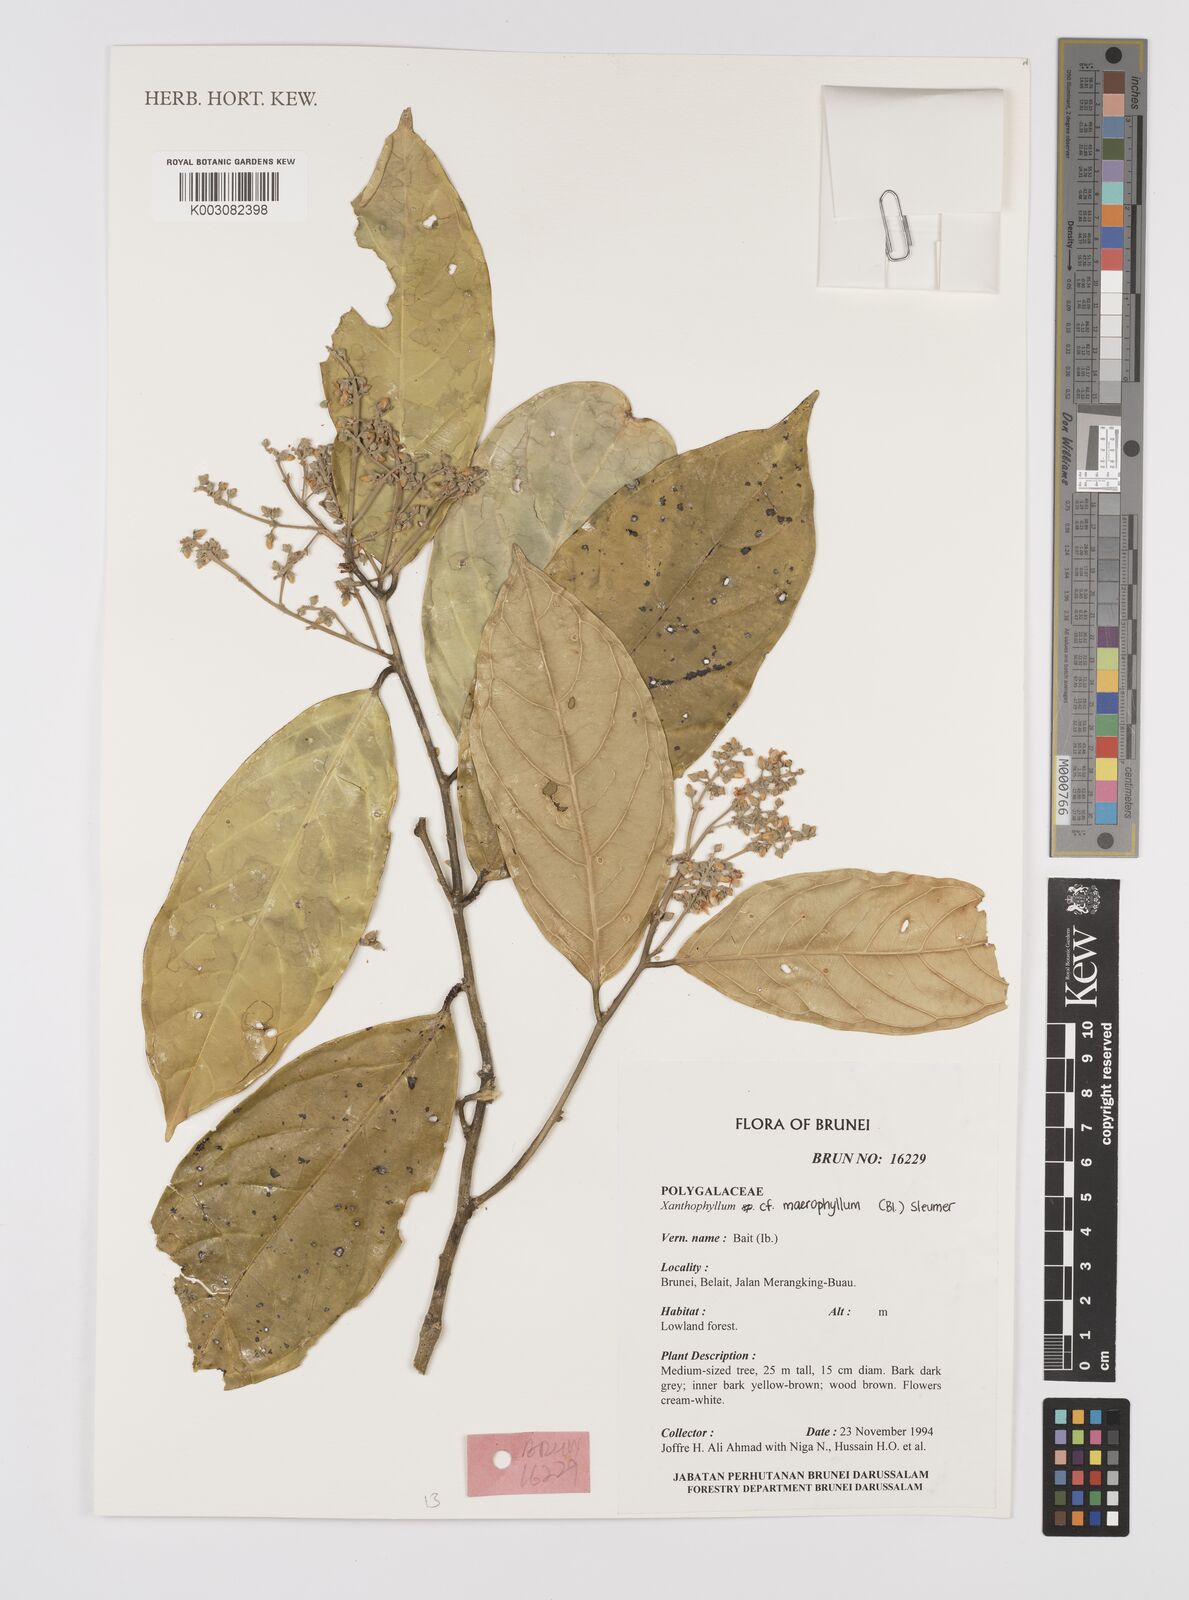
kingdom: Plantae
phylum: Tracheophyta
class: Magnoliopsida
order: Fabales
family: Polygalaceae
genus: Xanthophyllum
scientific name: Xanthophyllum macrophyllum
